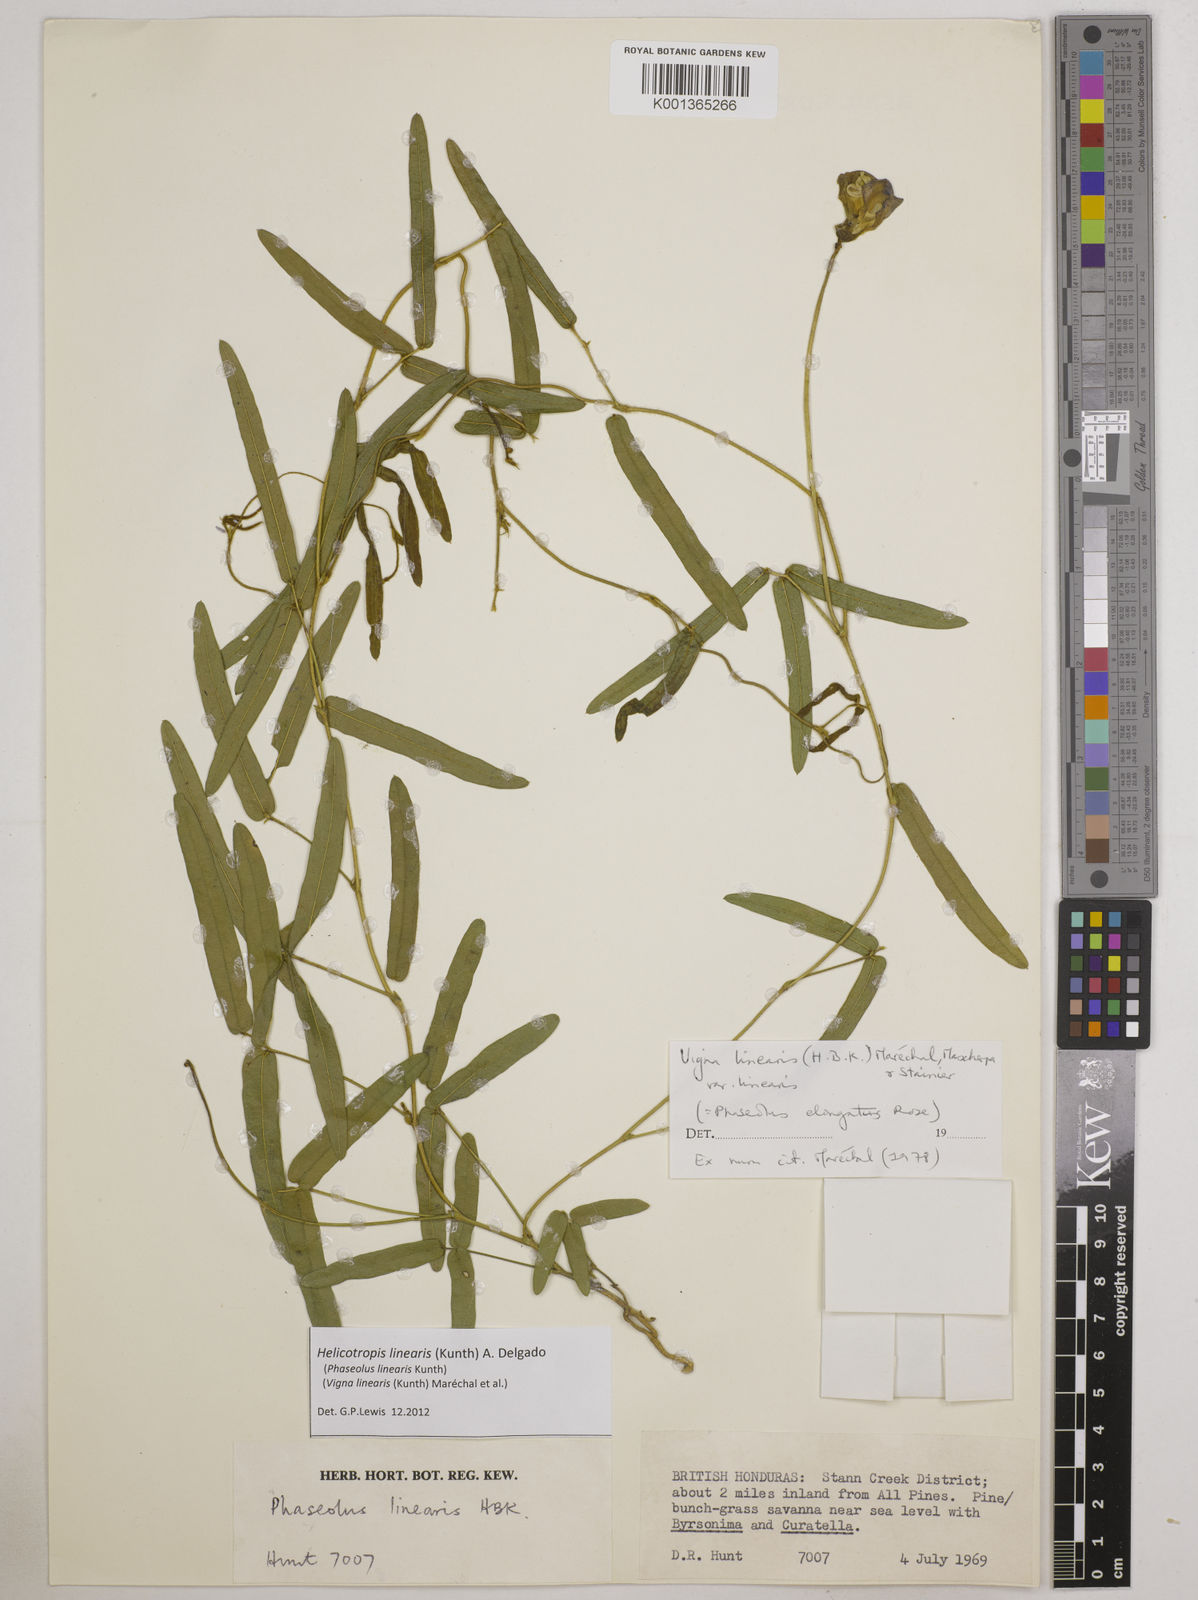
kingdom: Plantae
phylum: Tracheophyta
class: Magnoliopsida
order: Fabales
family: Fabaceae
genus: Helicotropis
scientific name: Helicotropis linearis
